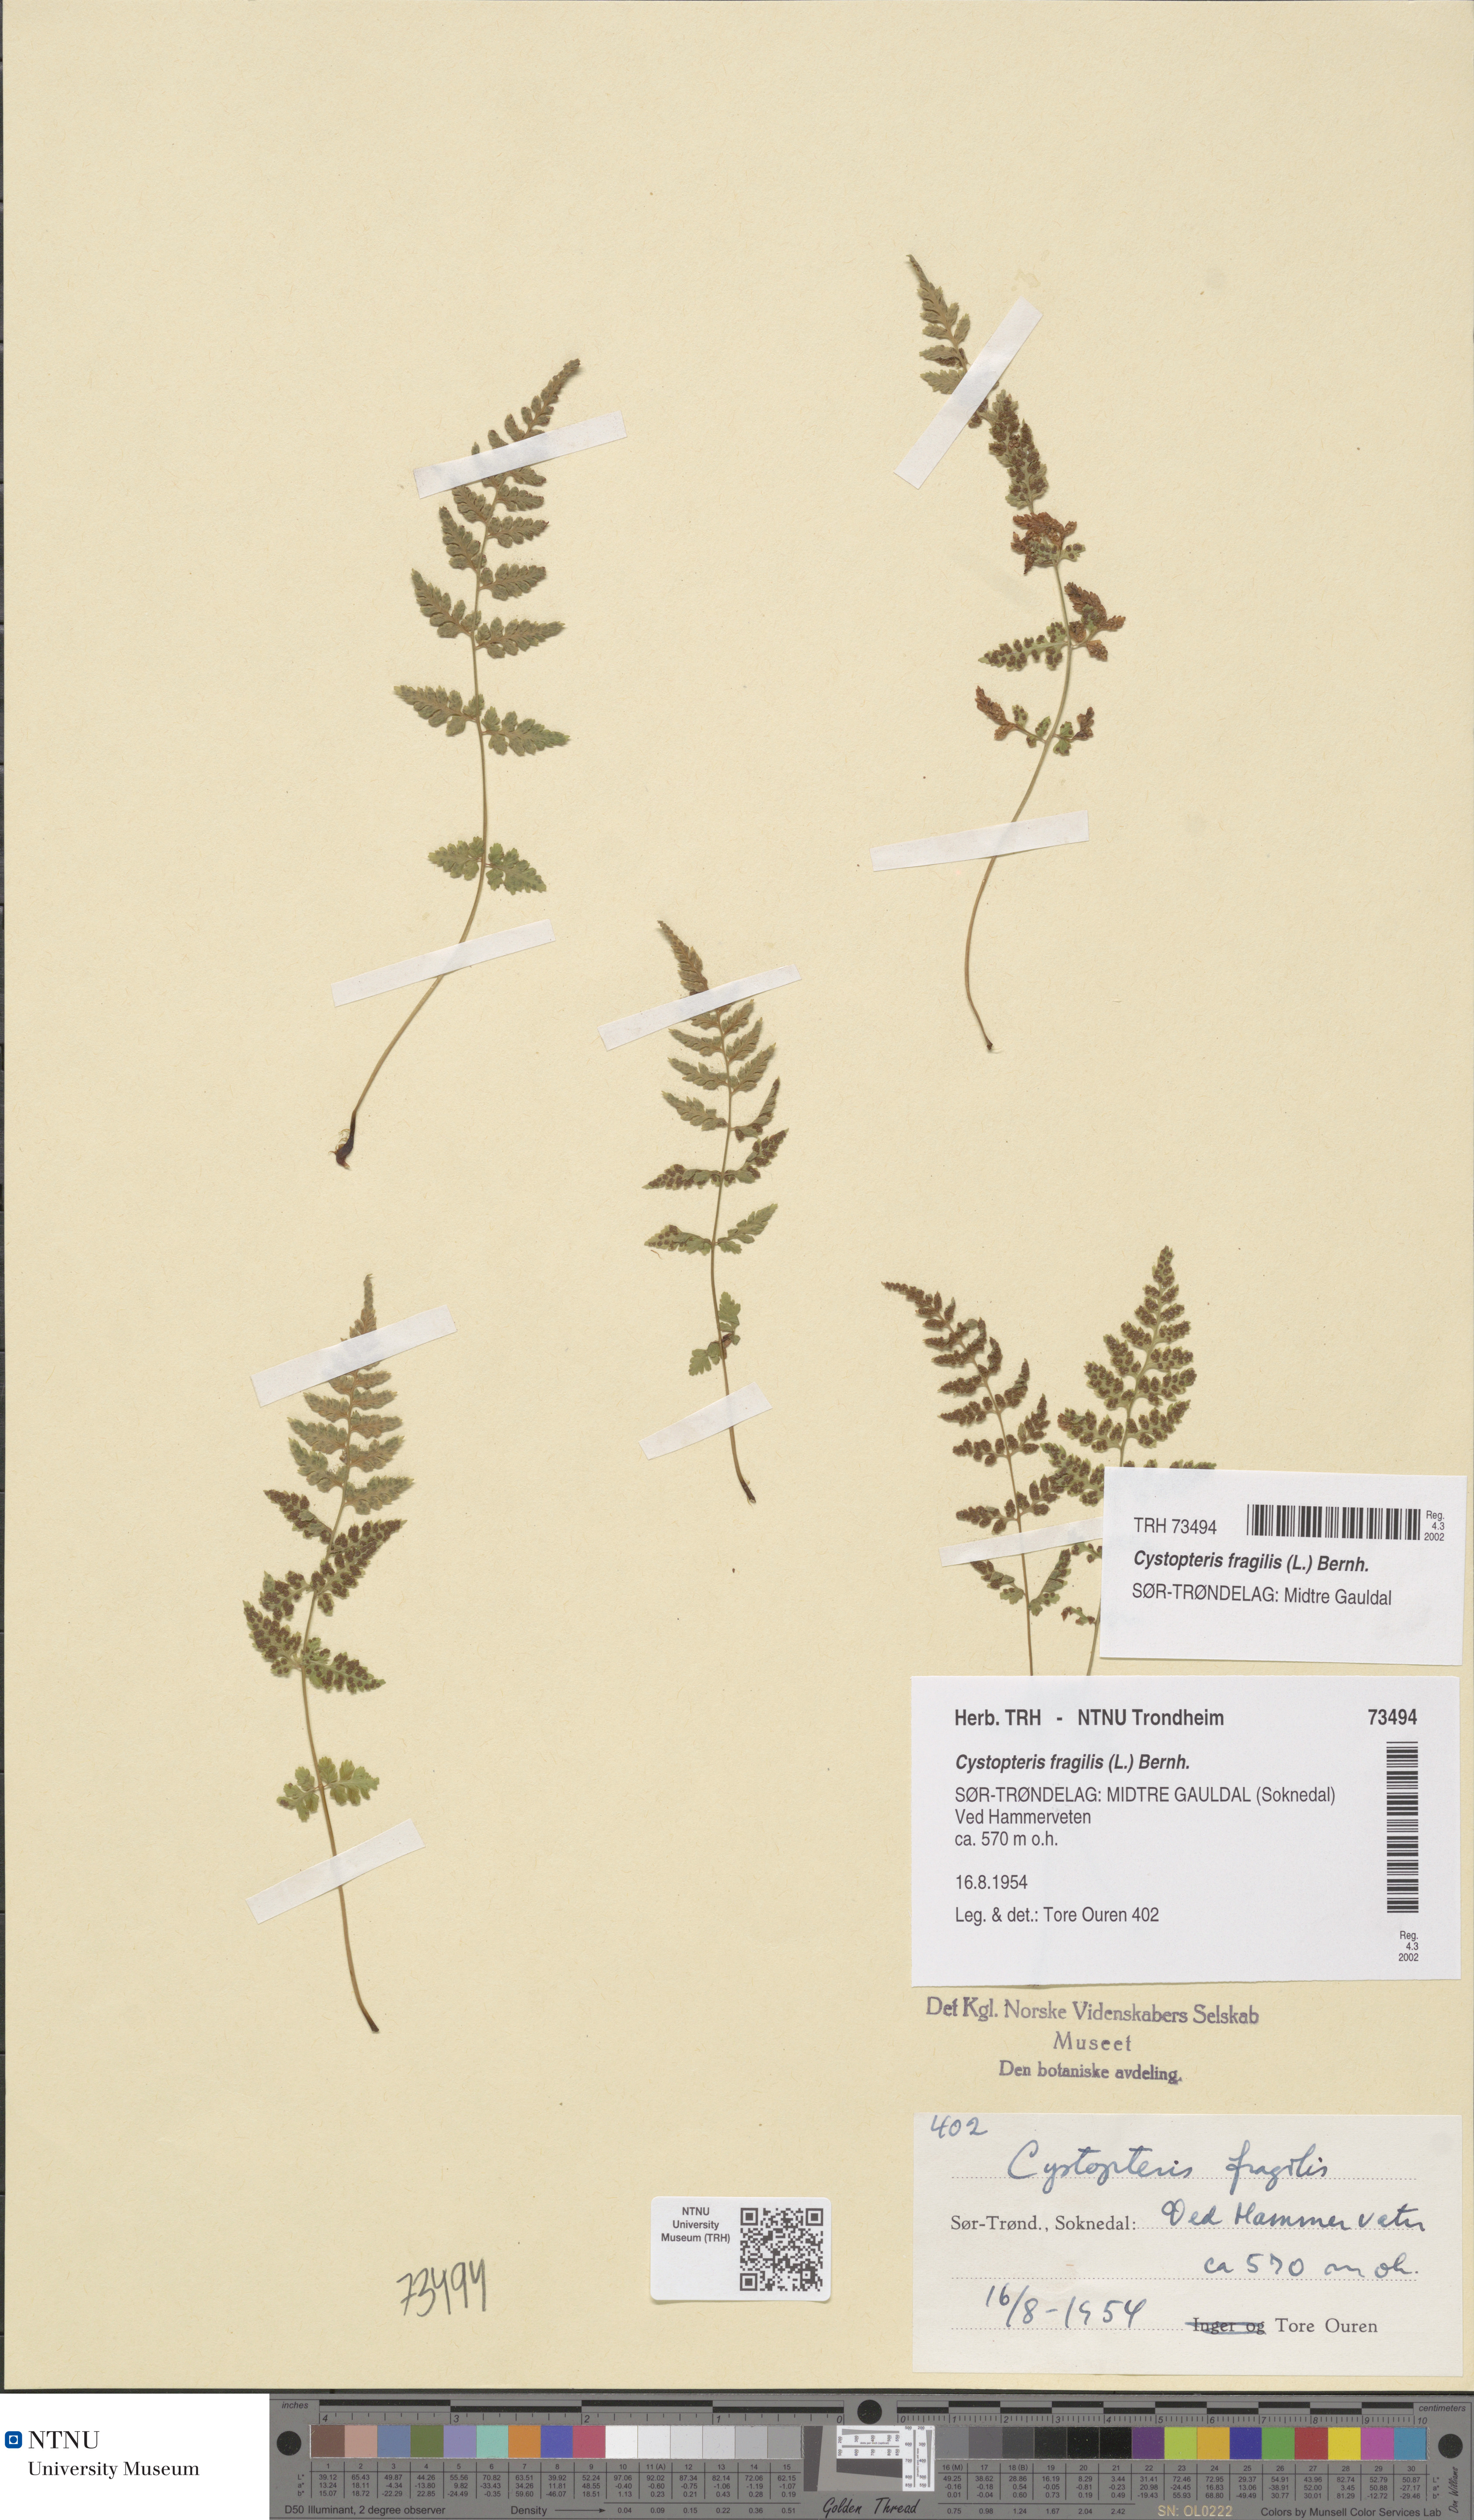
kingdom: Plantae
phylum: Tracheophyta
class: Polypodiopsida
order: Polypodiales
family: Cystopteridaceae
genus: Cystopteris
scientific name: Cystopteris fragilis
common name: Brittle bladder fern
